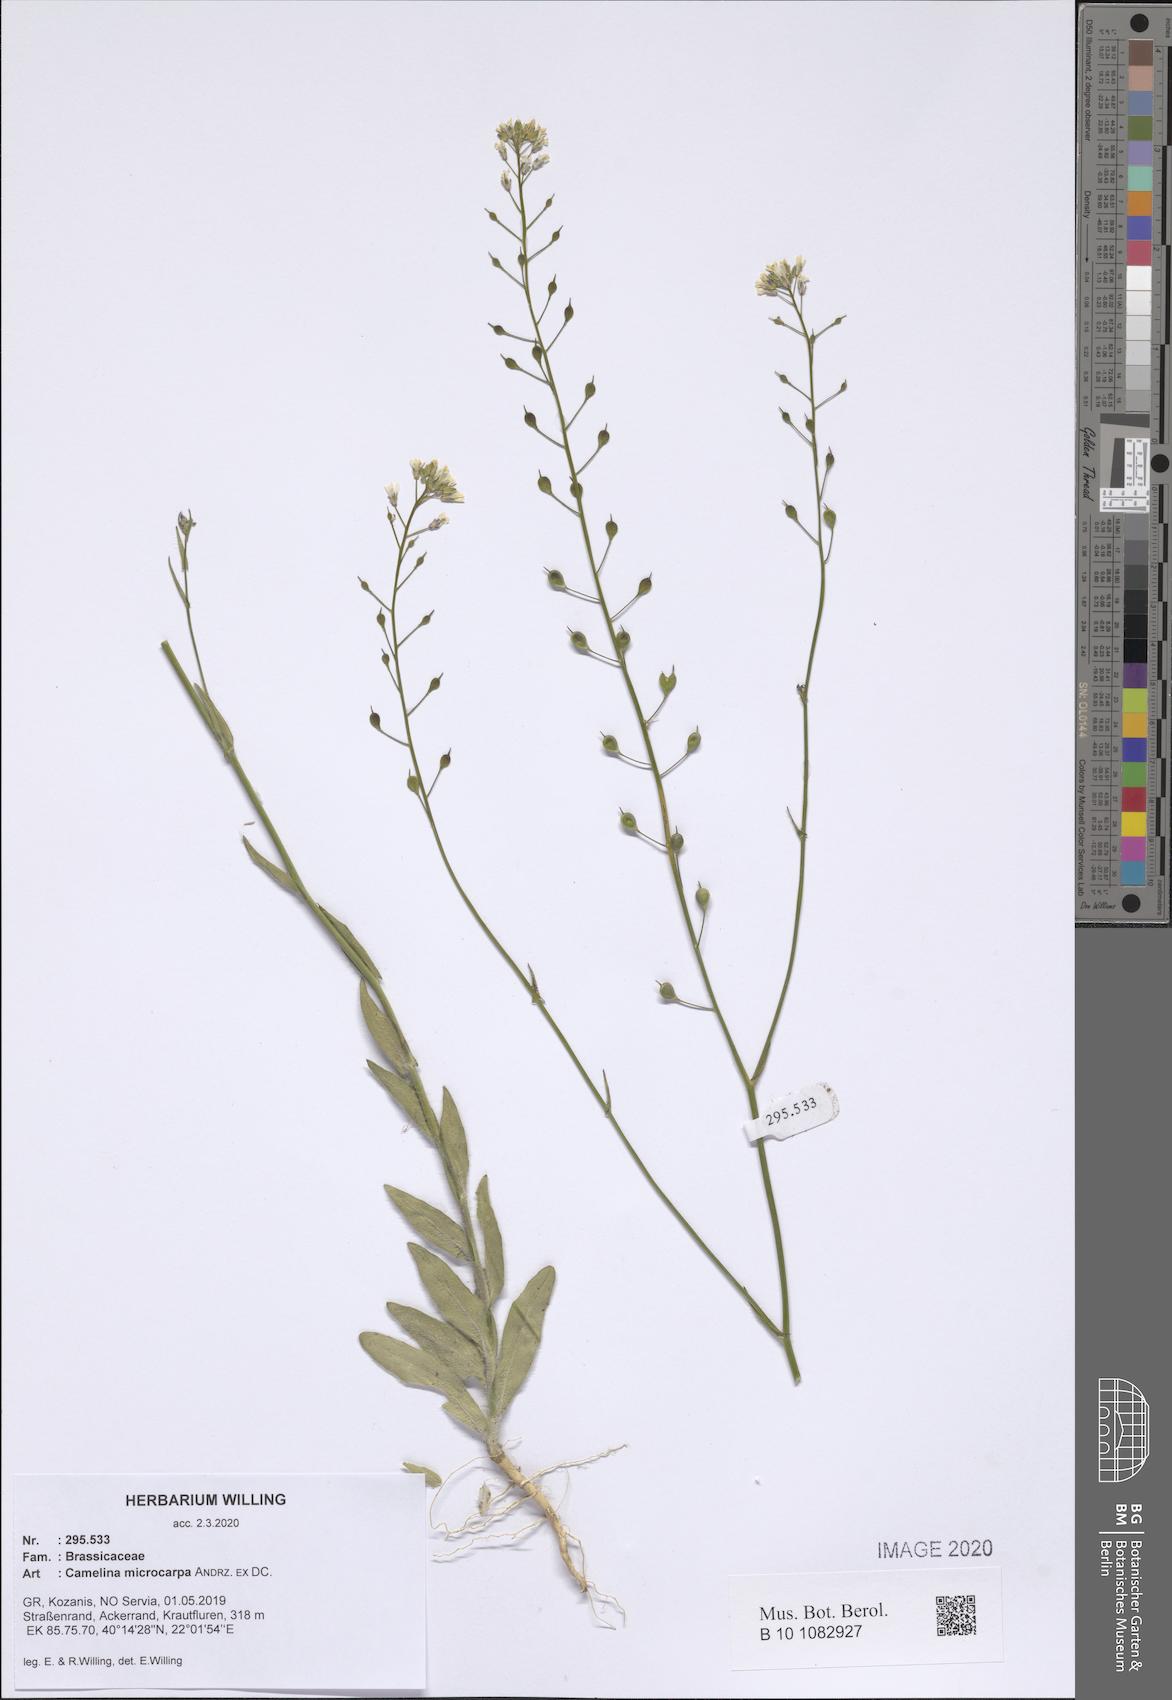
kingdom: Plantae
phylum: Tracheophyta
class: Magnoliopsida
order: Brassicales
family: Brassicaceae
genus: Camelina
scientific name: Camelina microcarpa
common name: Lesser gold-of-pleasure
